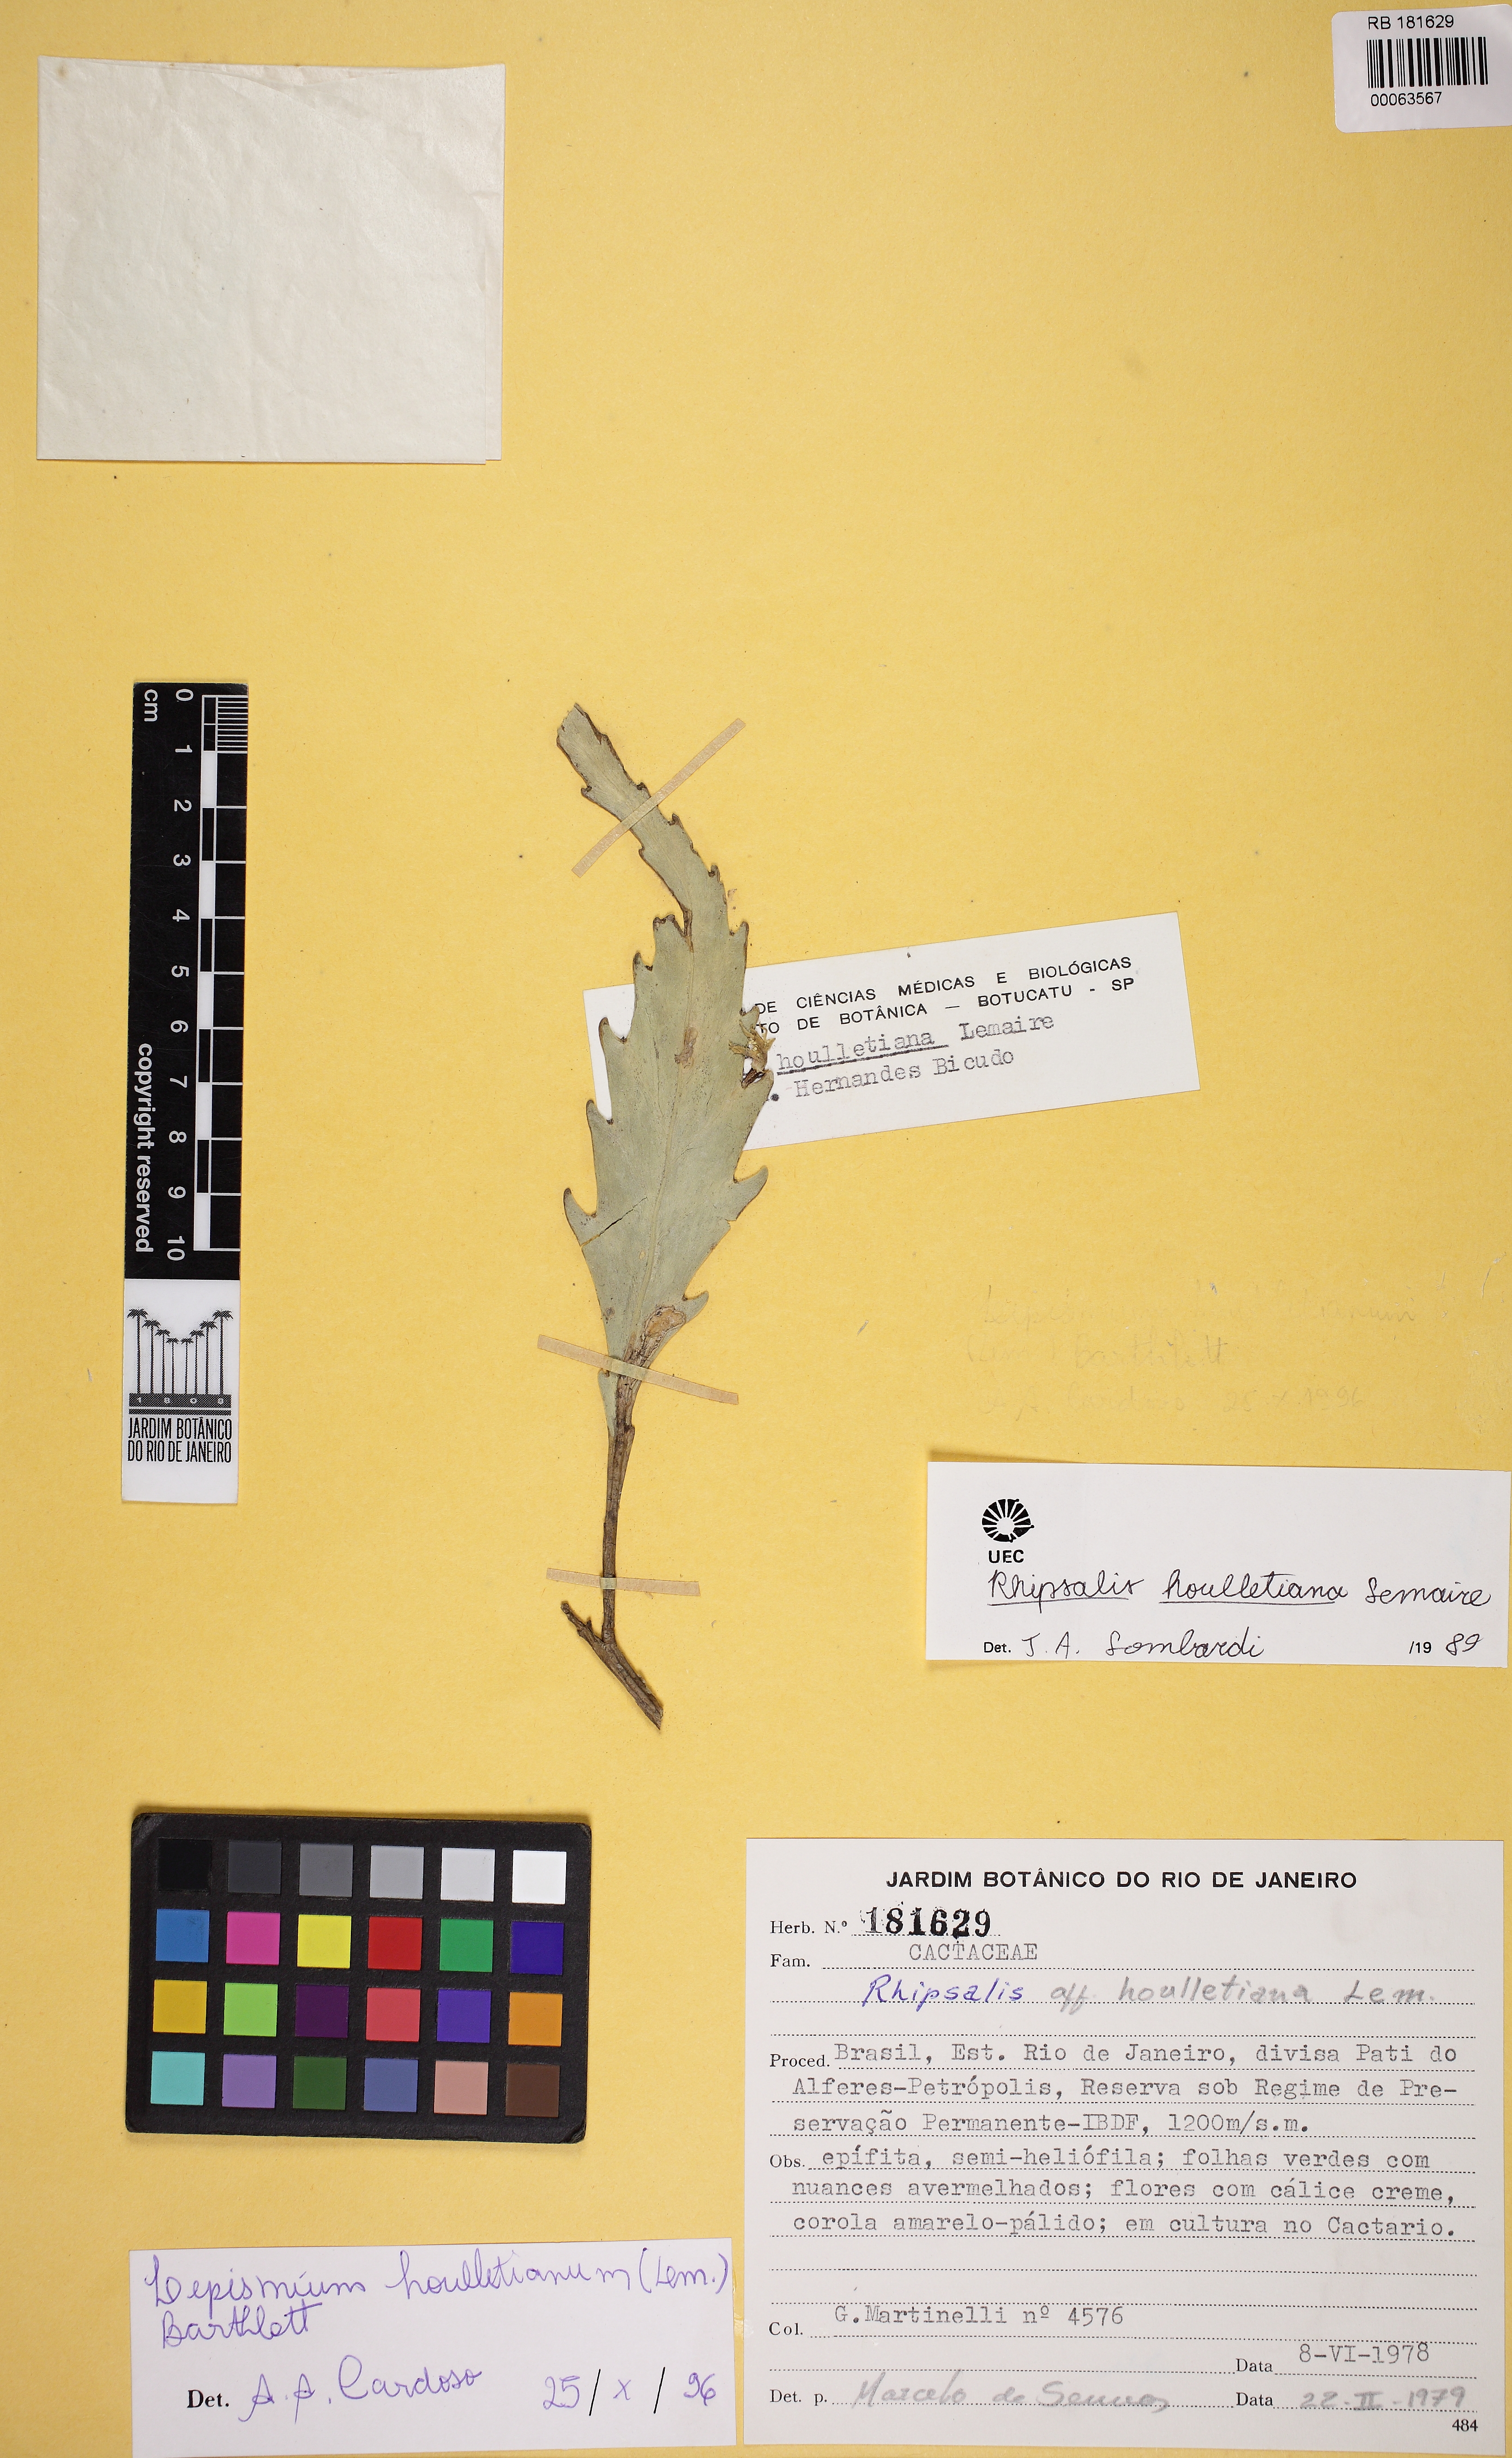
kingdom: Plantae
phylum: Tracheophyta
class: Magnoliopsida
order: Caryophyllales
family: Cactaceae
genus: Lepismium
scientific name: Lepismium houlletianum
